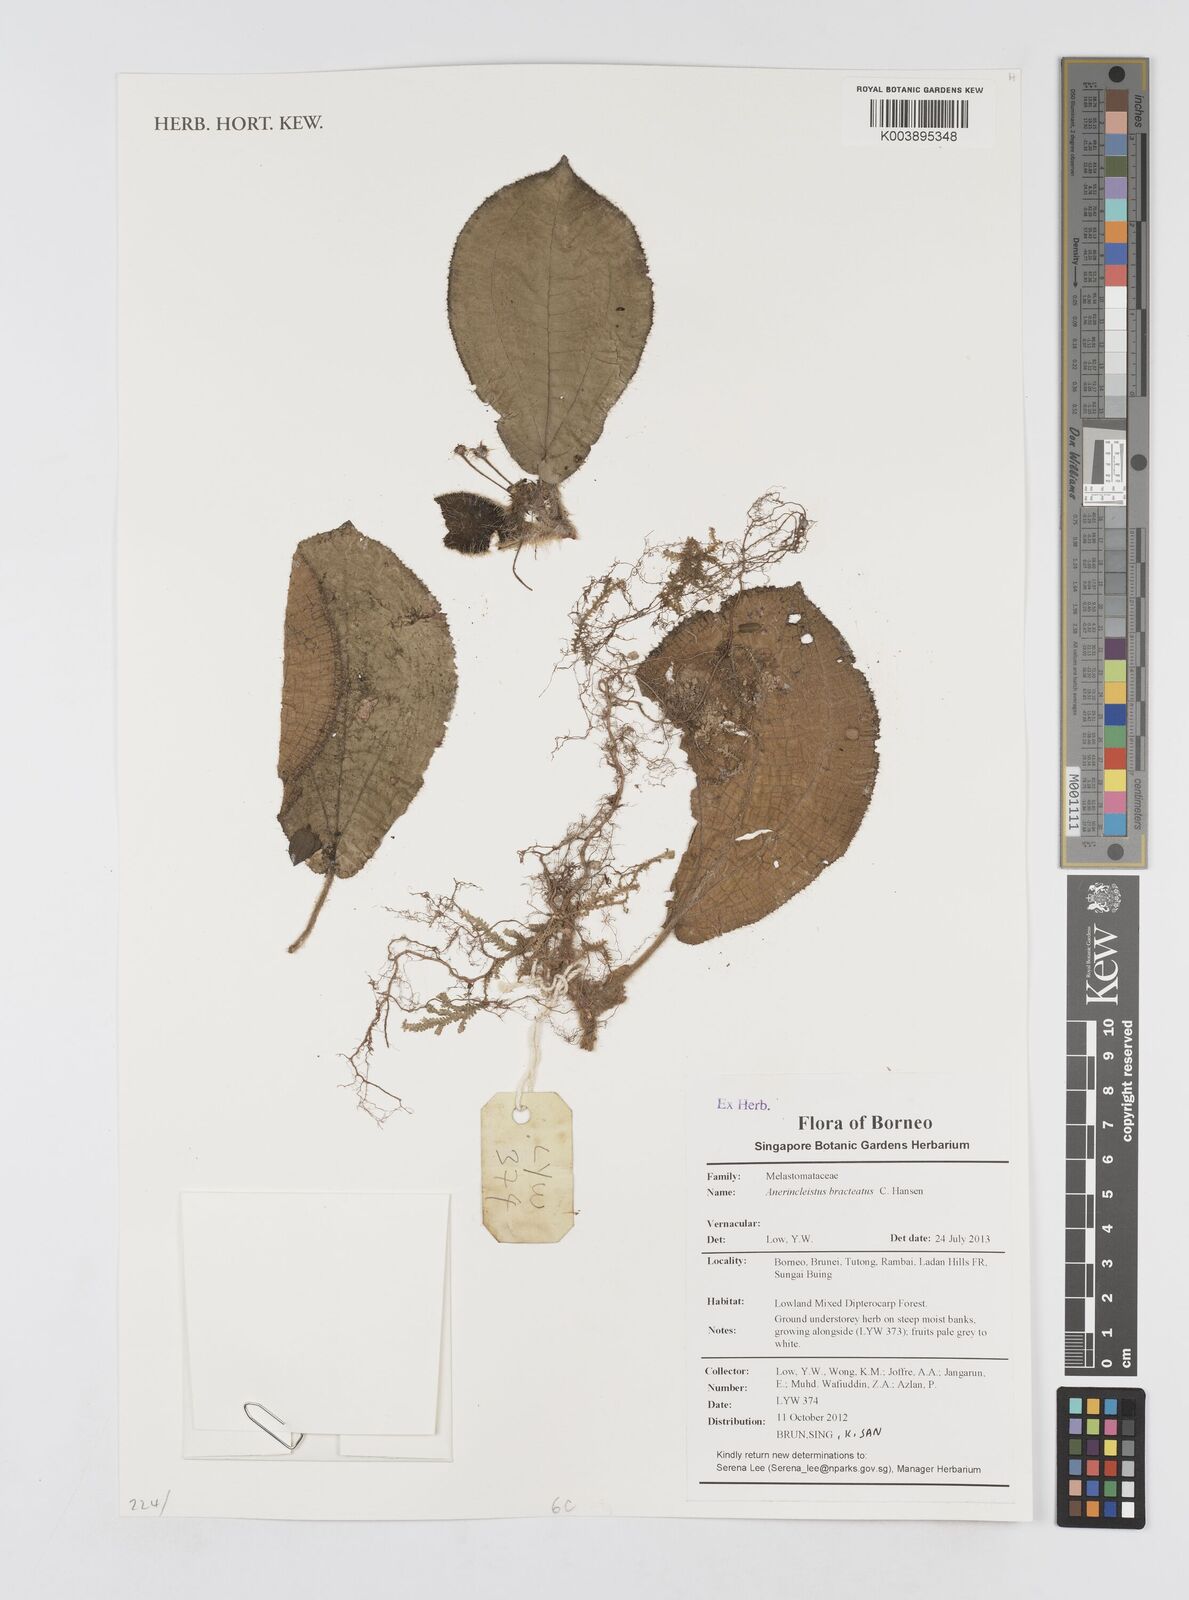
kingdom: Plantae
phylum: Tracheophyta
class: Magnoliopsida
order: Myrtales
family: Melastomataceae
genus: Anerincleistus
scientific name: Anerincleistus bracteatus
